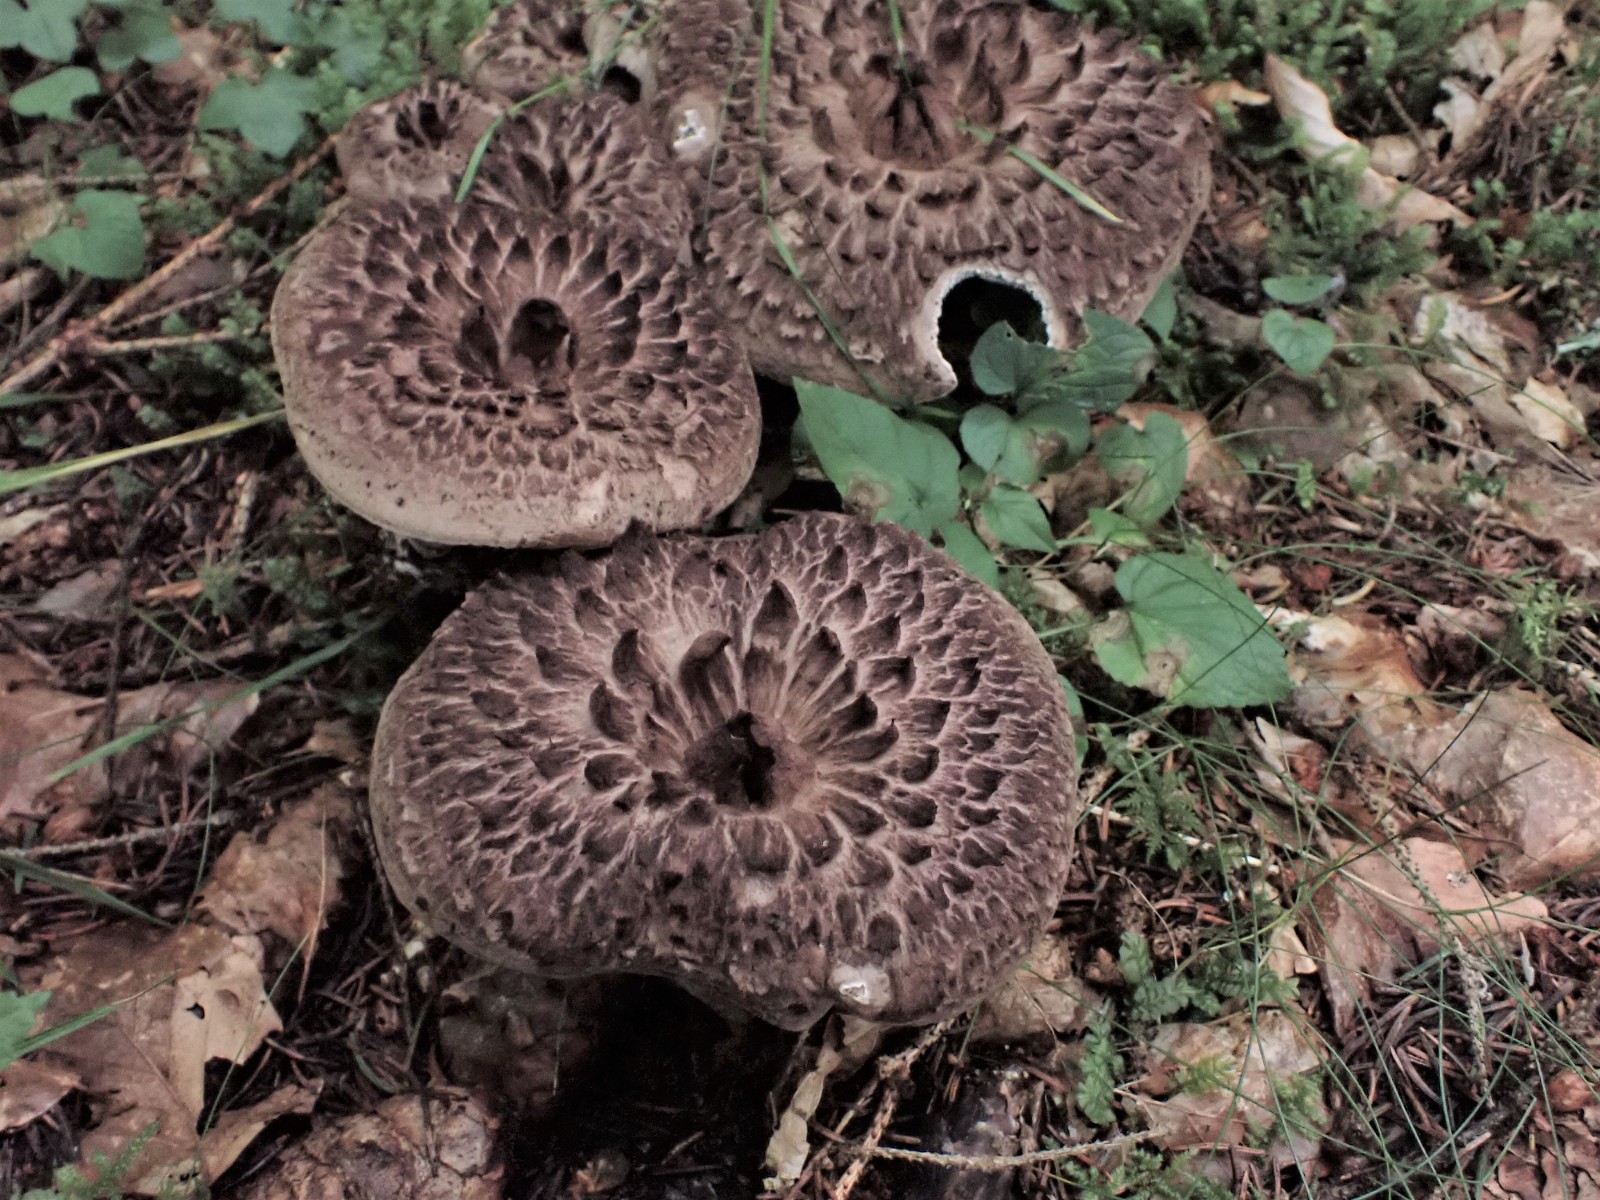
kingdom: Fungi
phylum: Basidiomycota
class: Agaricomycetes
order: Thelephorales
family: Bankeraceae
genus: Sarcodon
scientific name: Sarcodon imbricatus
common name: skællet kødpigsvamp
